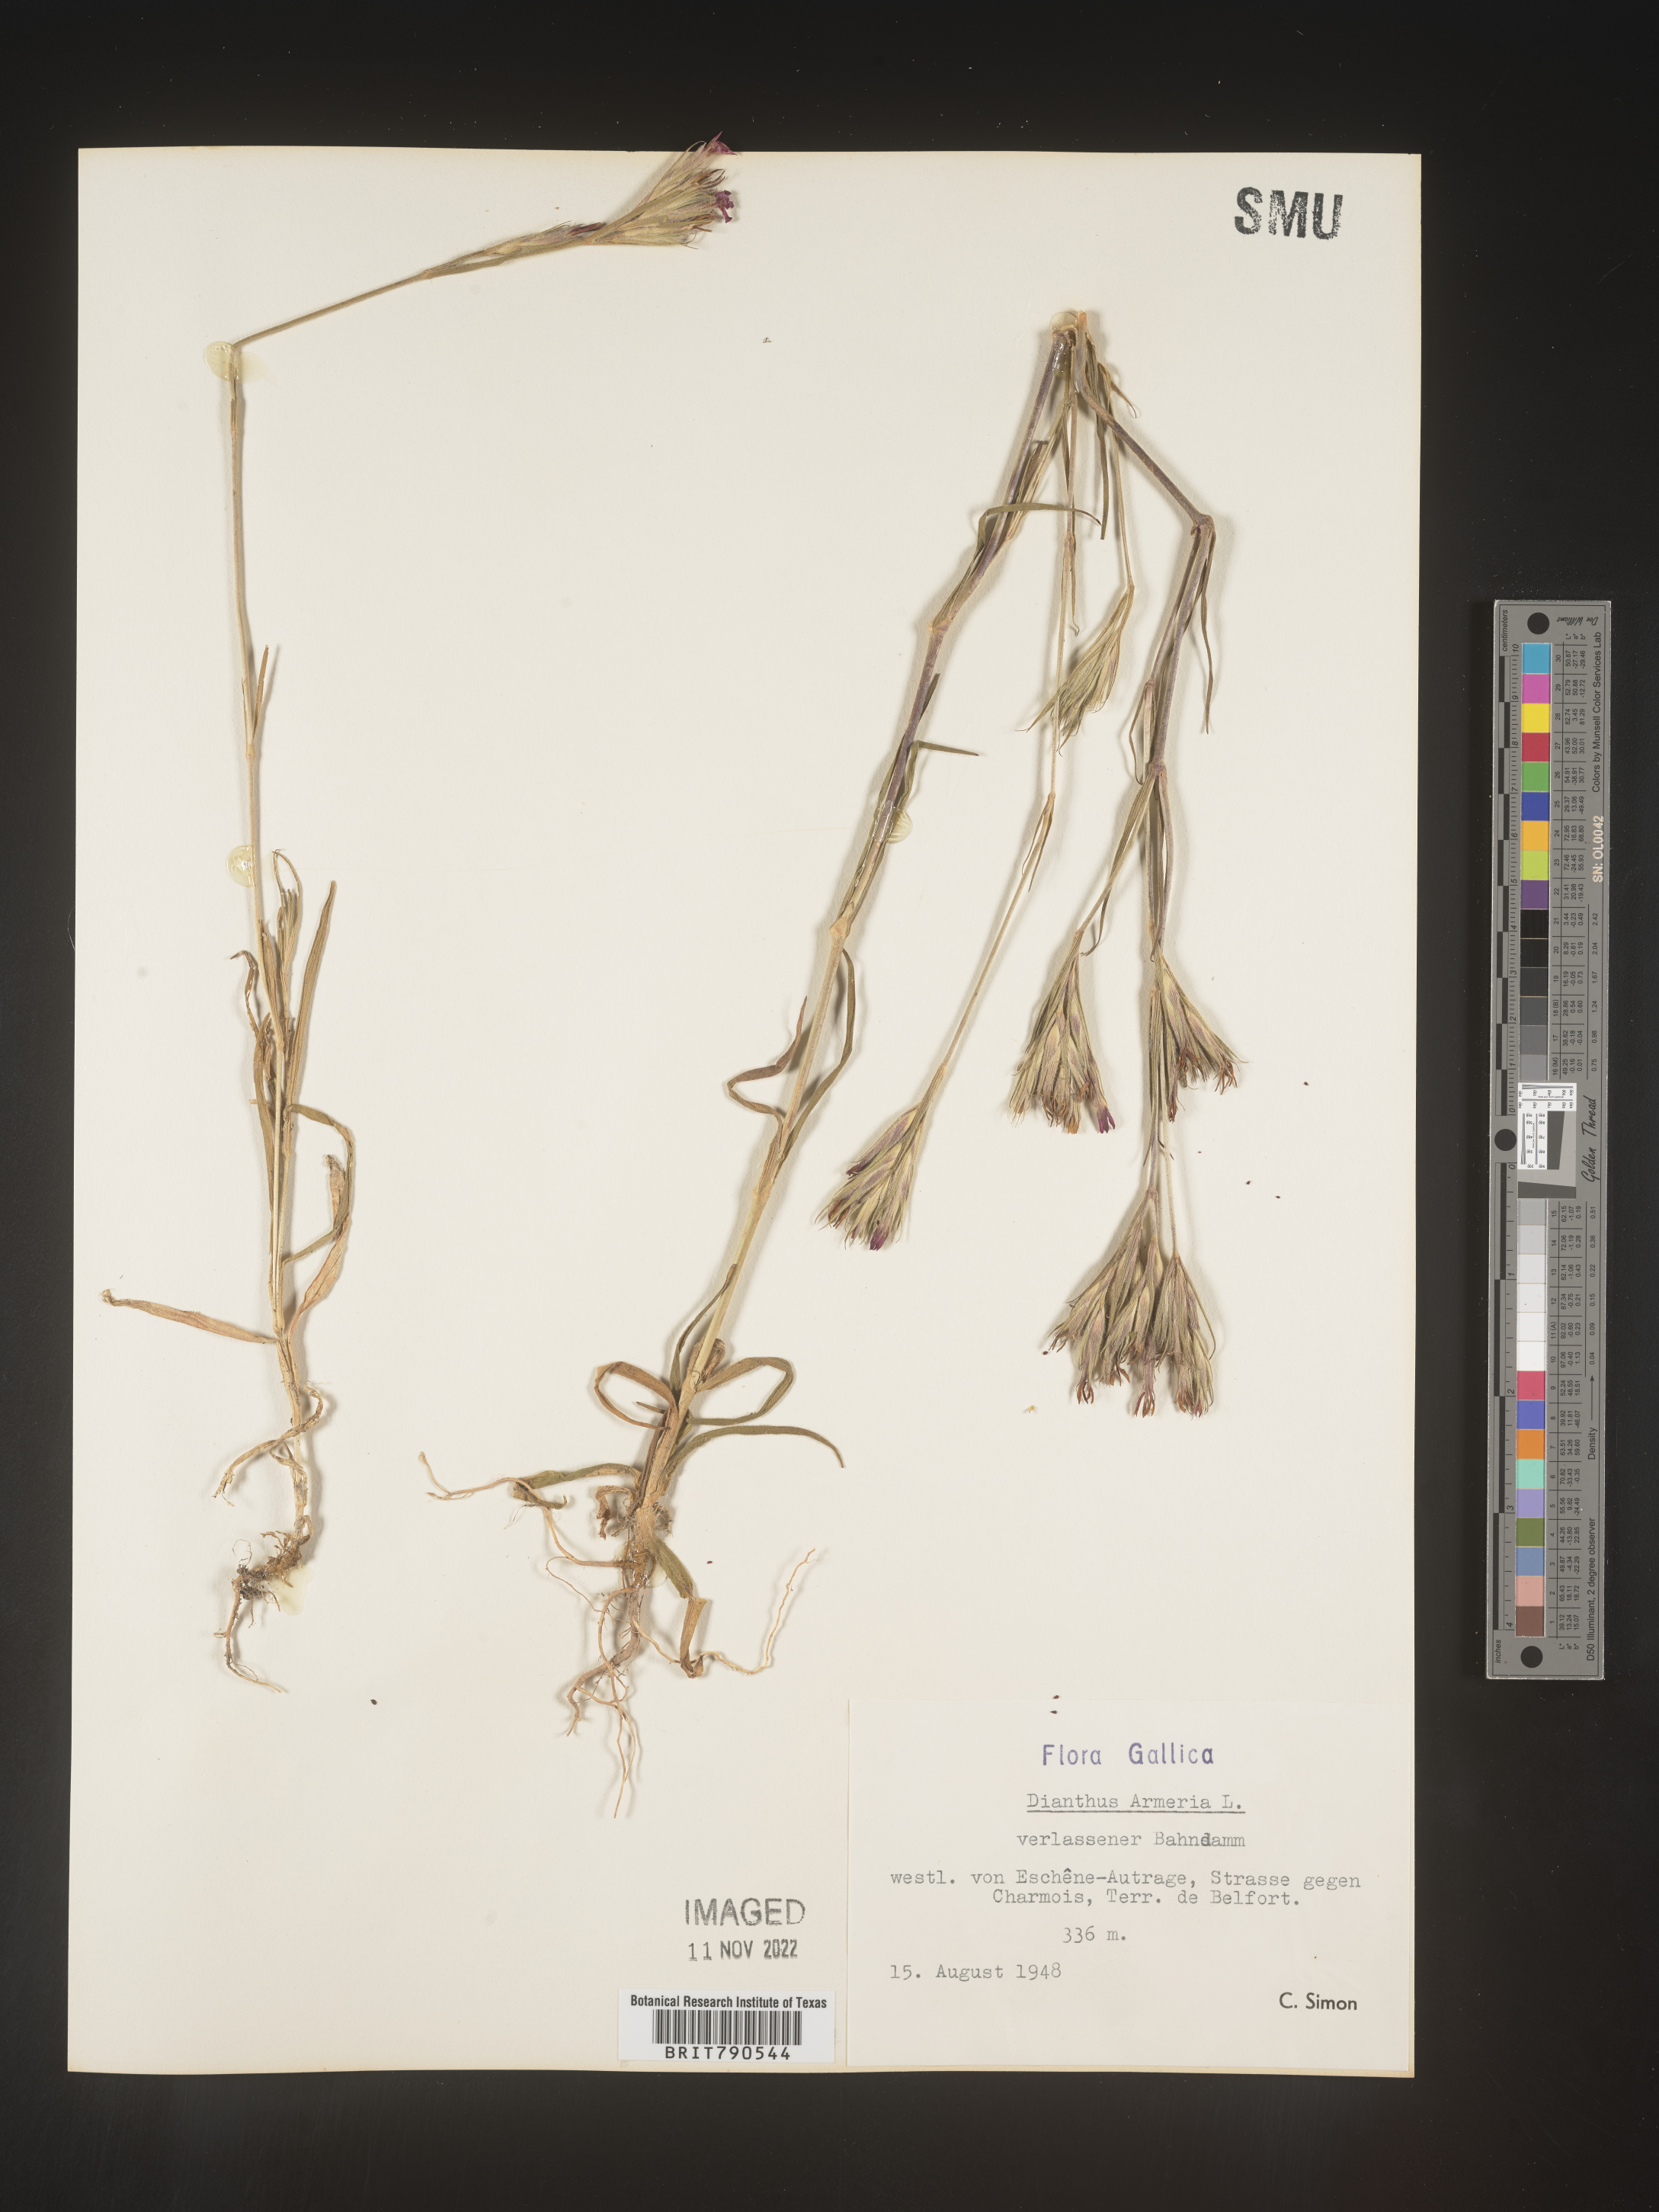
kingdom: Plantae
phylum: Tracheophyta
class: Magnoliopsida
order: Caryophyllales
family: Caryophyllaceae
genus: Dianthus
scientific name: Dianthus
